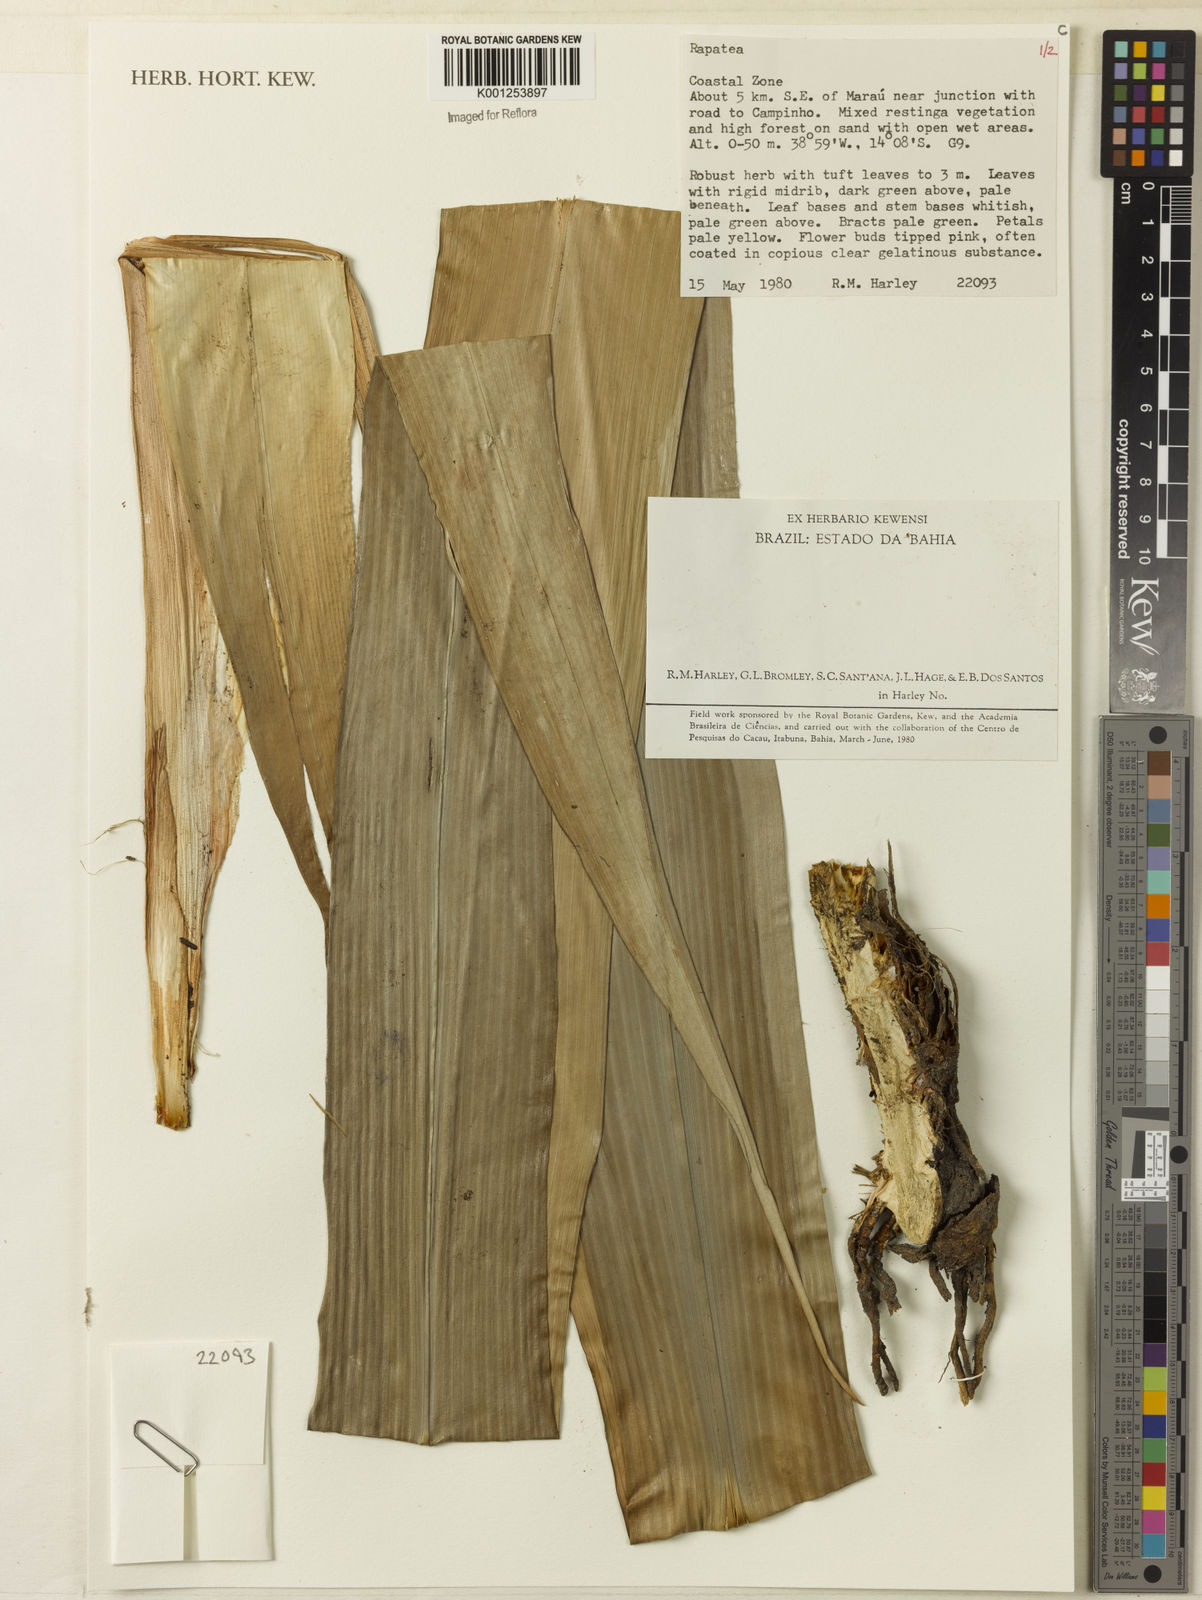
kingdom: Plantae
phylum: Tracheophyta
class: Liliopsida
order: Poales
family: Rapateaceae
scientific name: Rapateaceae
